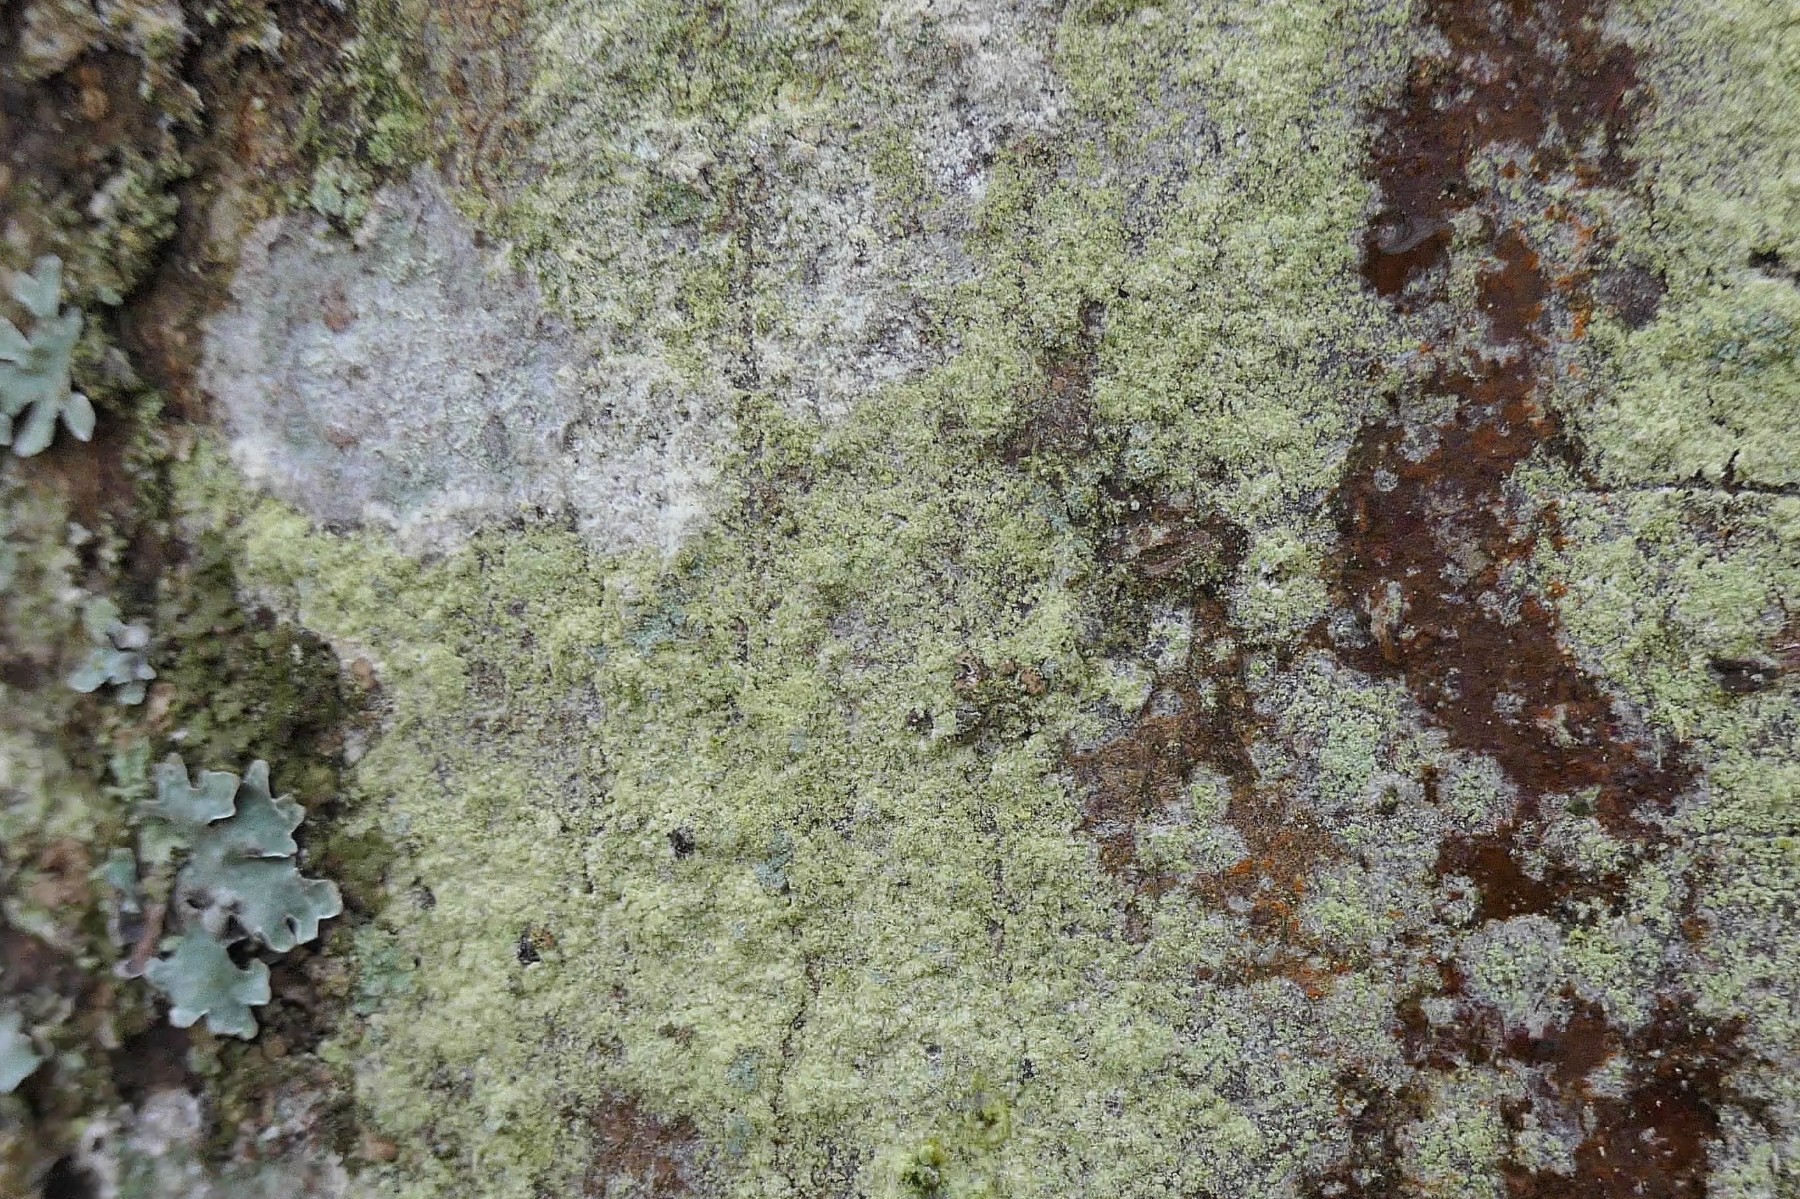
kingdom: Fungi
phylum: Ascomycota
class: Lecanoromycetes
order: Lecanorales
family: Lecanoraceae
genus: Lecanora
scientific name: Lecanora expallens
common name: bleggul kantskivelav
